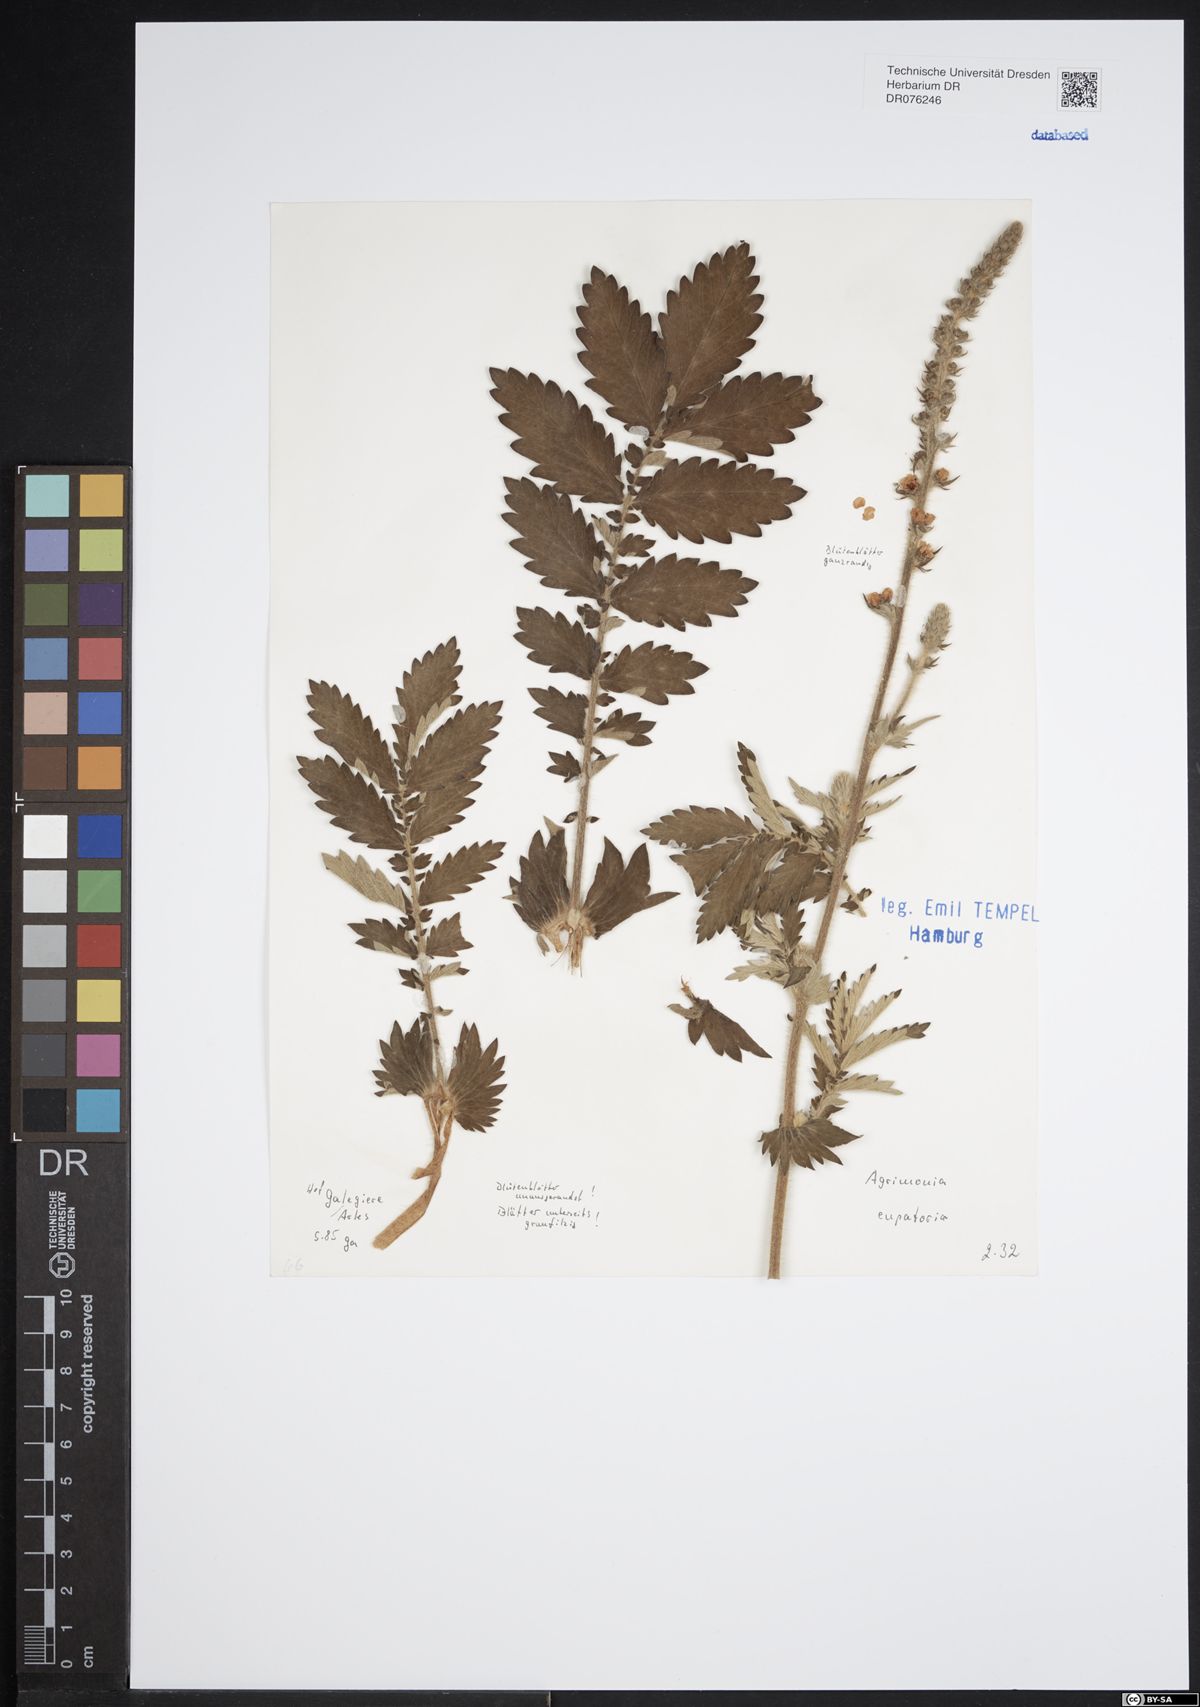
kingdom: Plantae
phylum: Tracheophyta
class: Magnoliopsida
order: Rosales
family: Rosaceae
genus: Agrimonia
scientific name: Agrimonia eupatoria
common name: Agrimony
